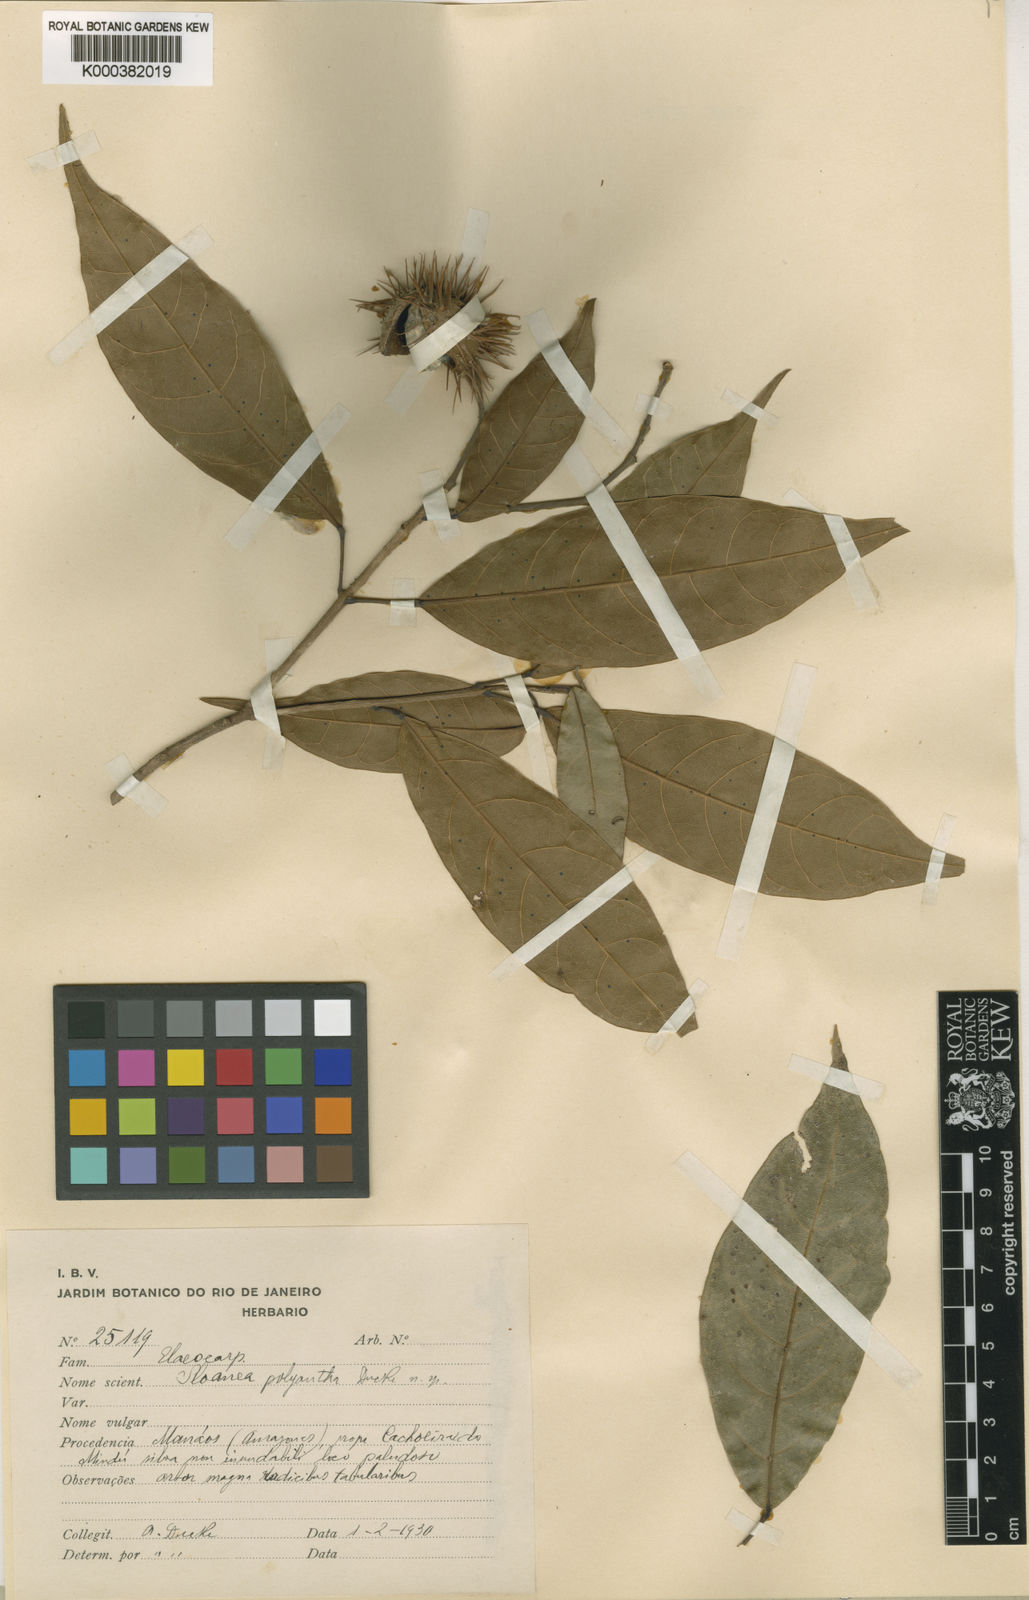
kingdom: Plantae
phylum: Tracheophyta
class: Magnoliopsida
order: Oxalidales
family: Elaeocarpaceae
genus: Sloanea
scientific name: Sloanea laxiflora
